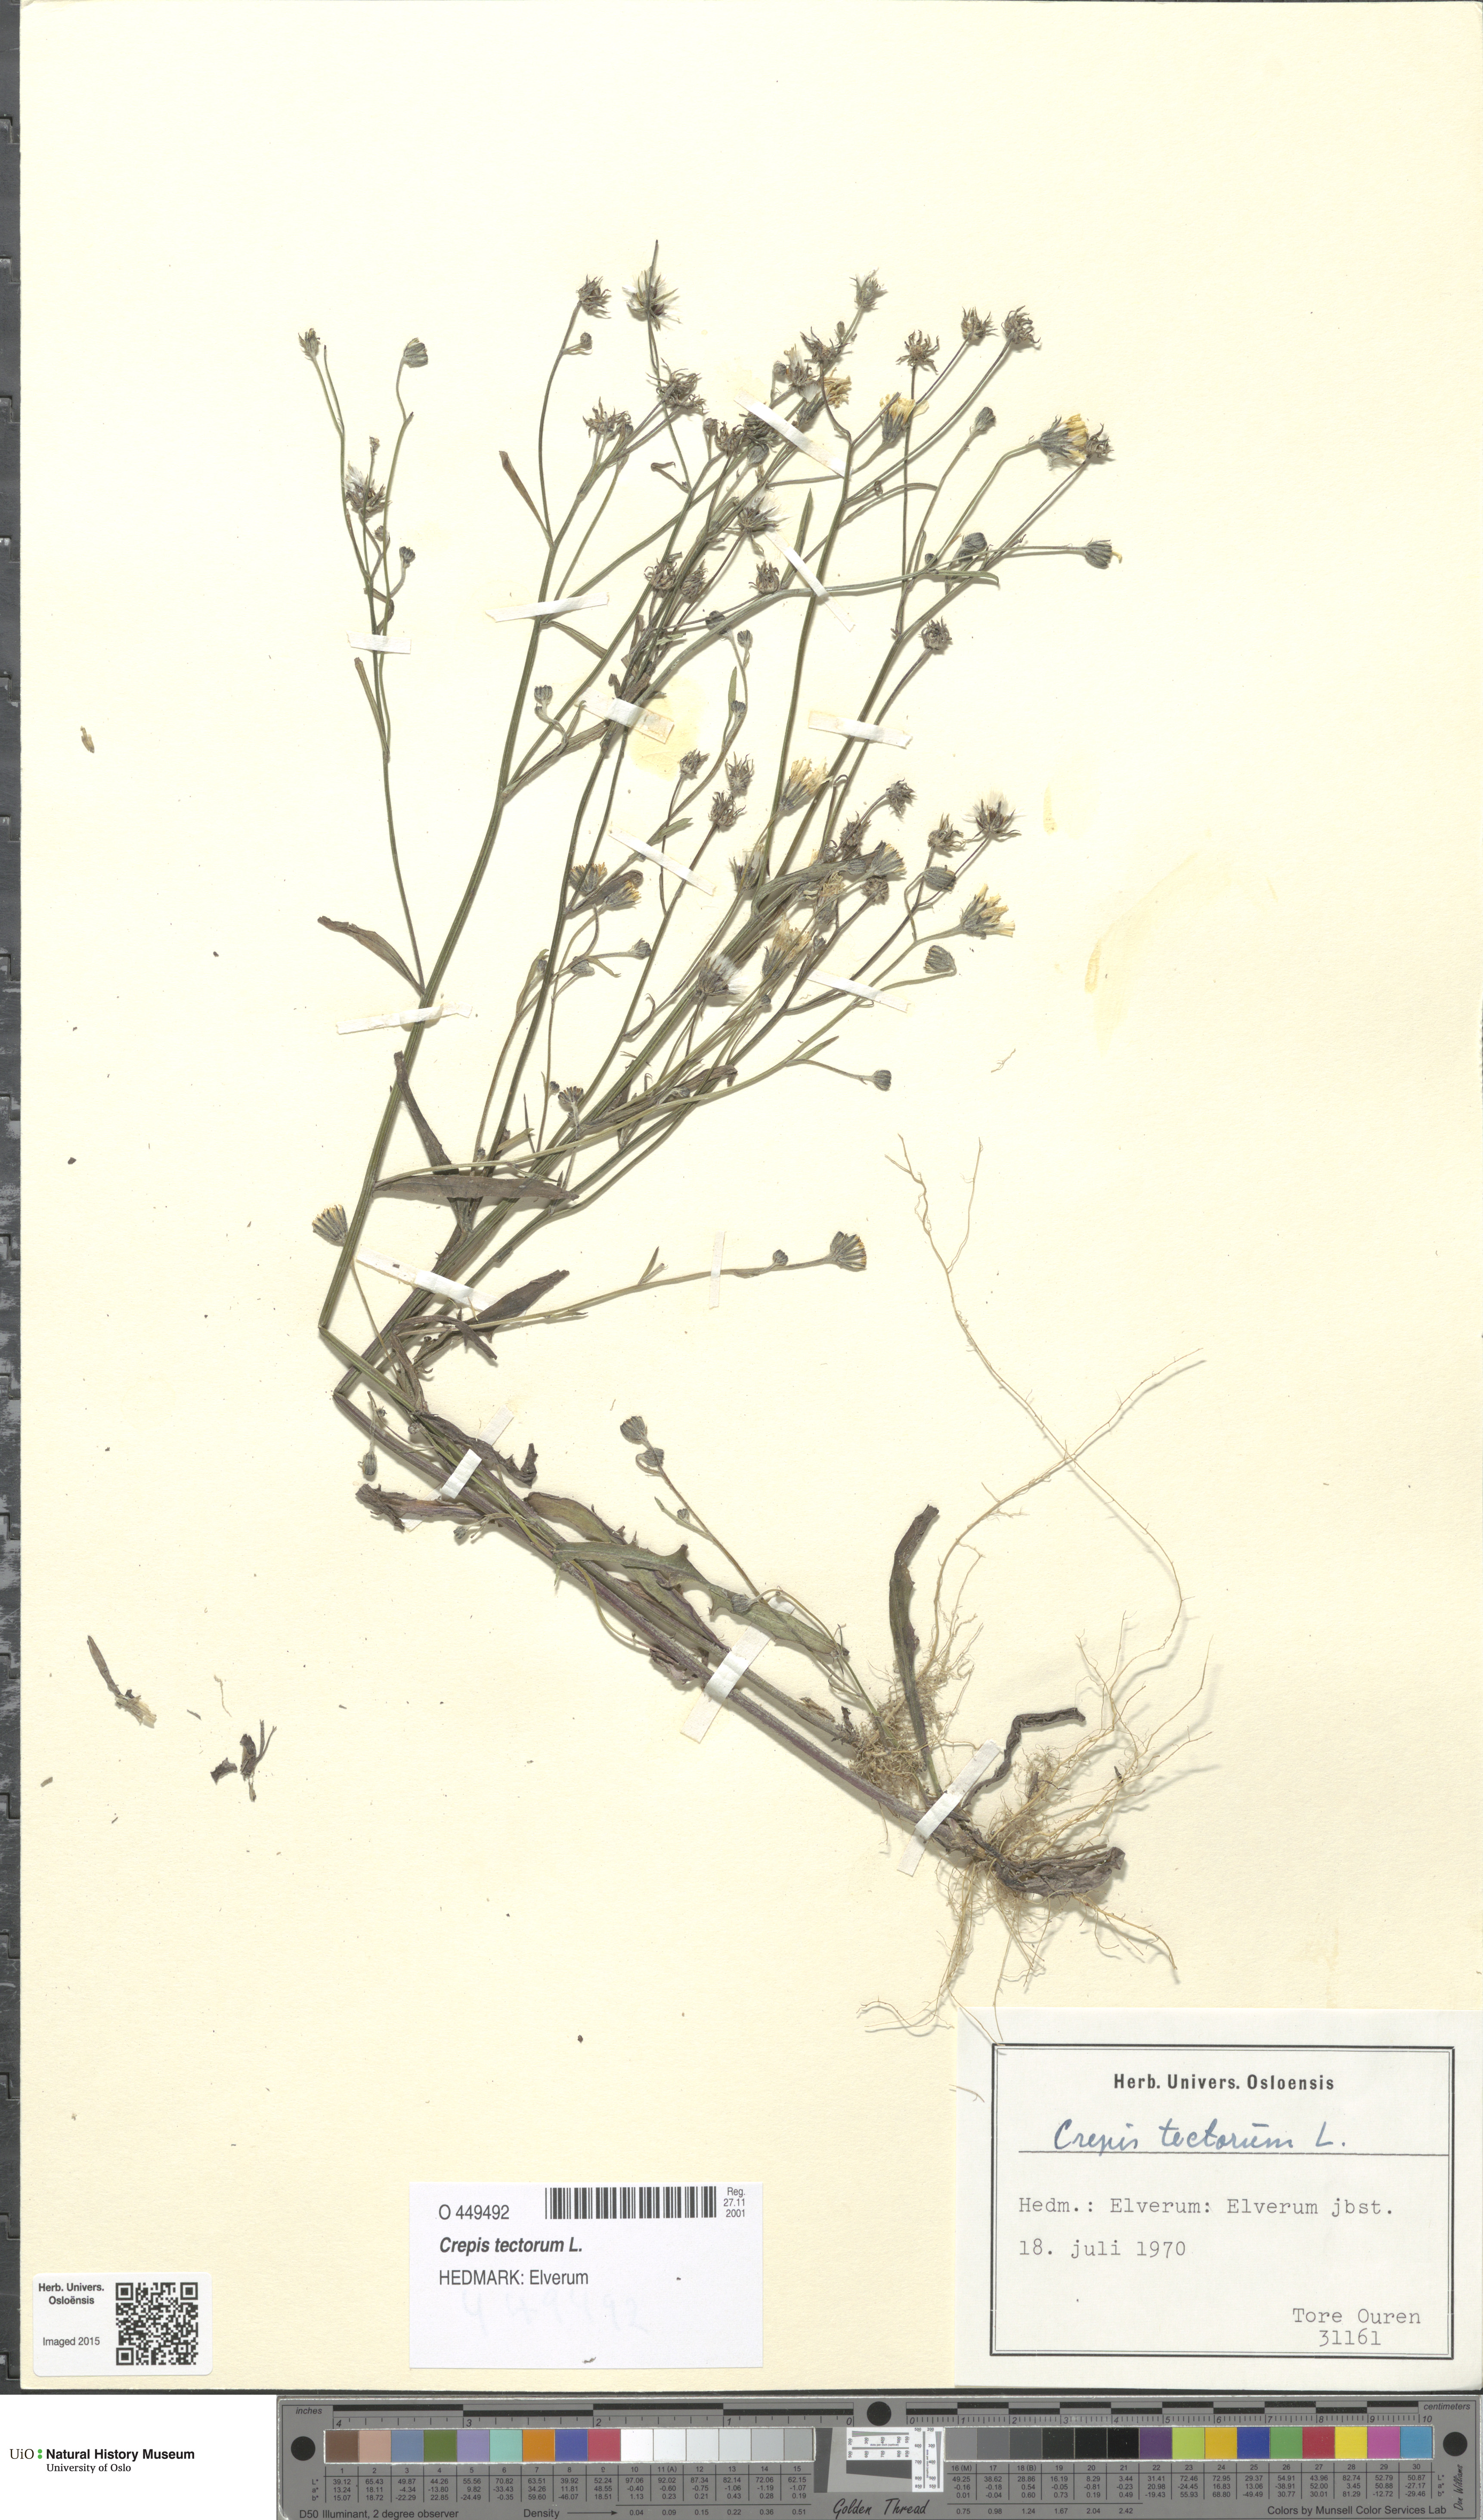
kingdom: Plantae
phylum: Tracheophyta
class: Magnoliopsida
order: Asterales
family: Asteraceae
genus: Crepis
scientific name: Crepis tectorum
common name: Narrow-leaved hawk's-beard
